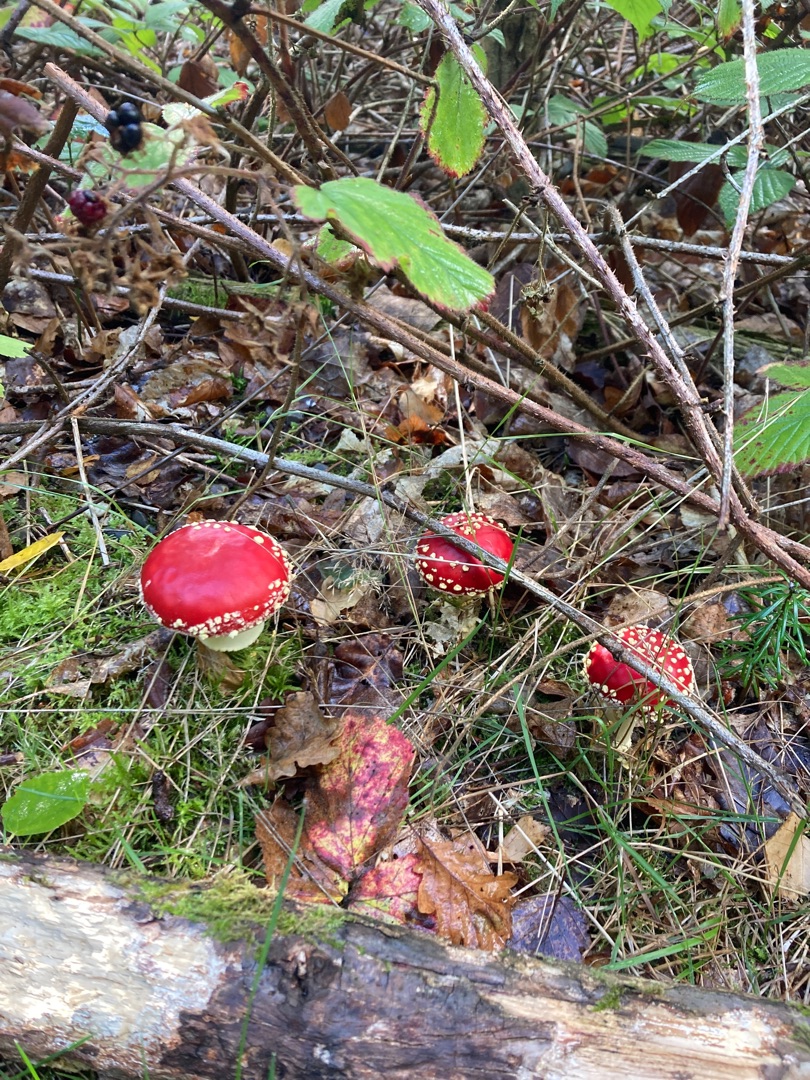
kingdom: Fungi
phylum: Basidiomycota
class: Agaricomycetes
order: Agaricales
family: Amanitaceae
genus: Amanita
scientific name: Amanita muscaria
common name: Rød fluesvamp
